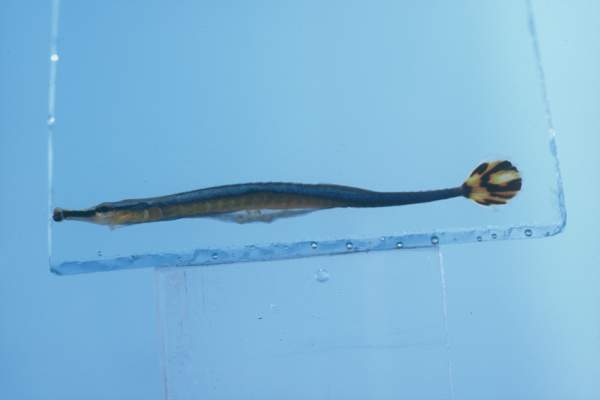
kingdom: Animalia
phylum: Chordata
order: Syngnathiformes
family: Syngnathidae
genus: Doryrhamphus
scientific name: Doryrhamphus excisus
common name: Bluestripe pipefish
